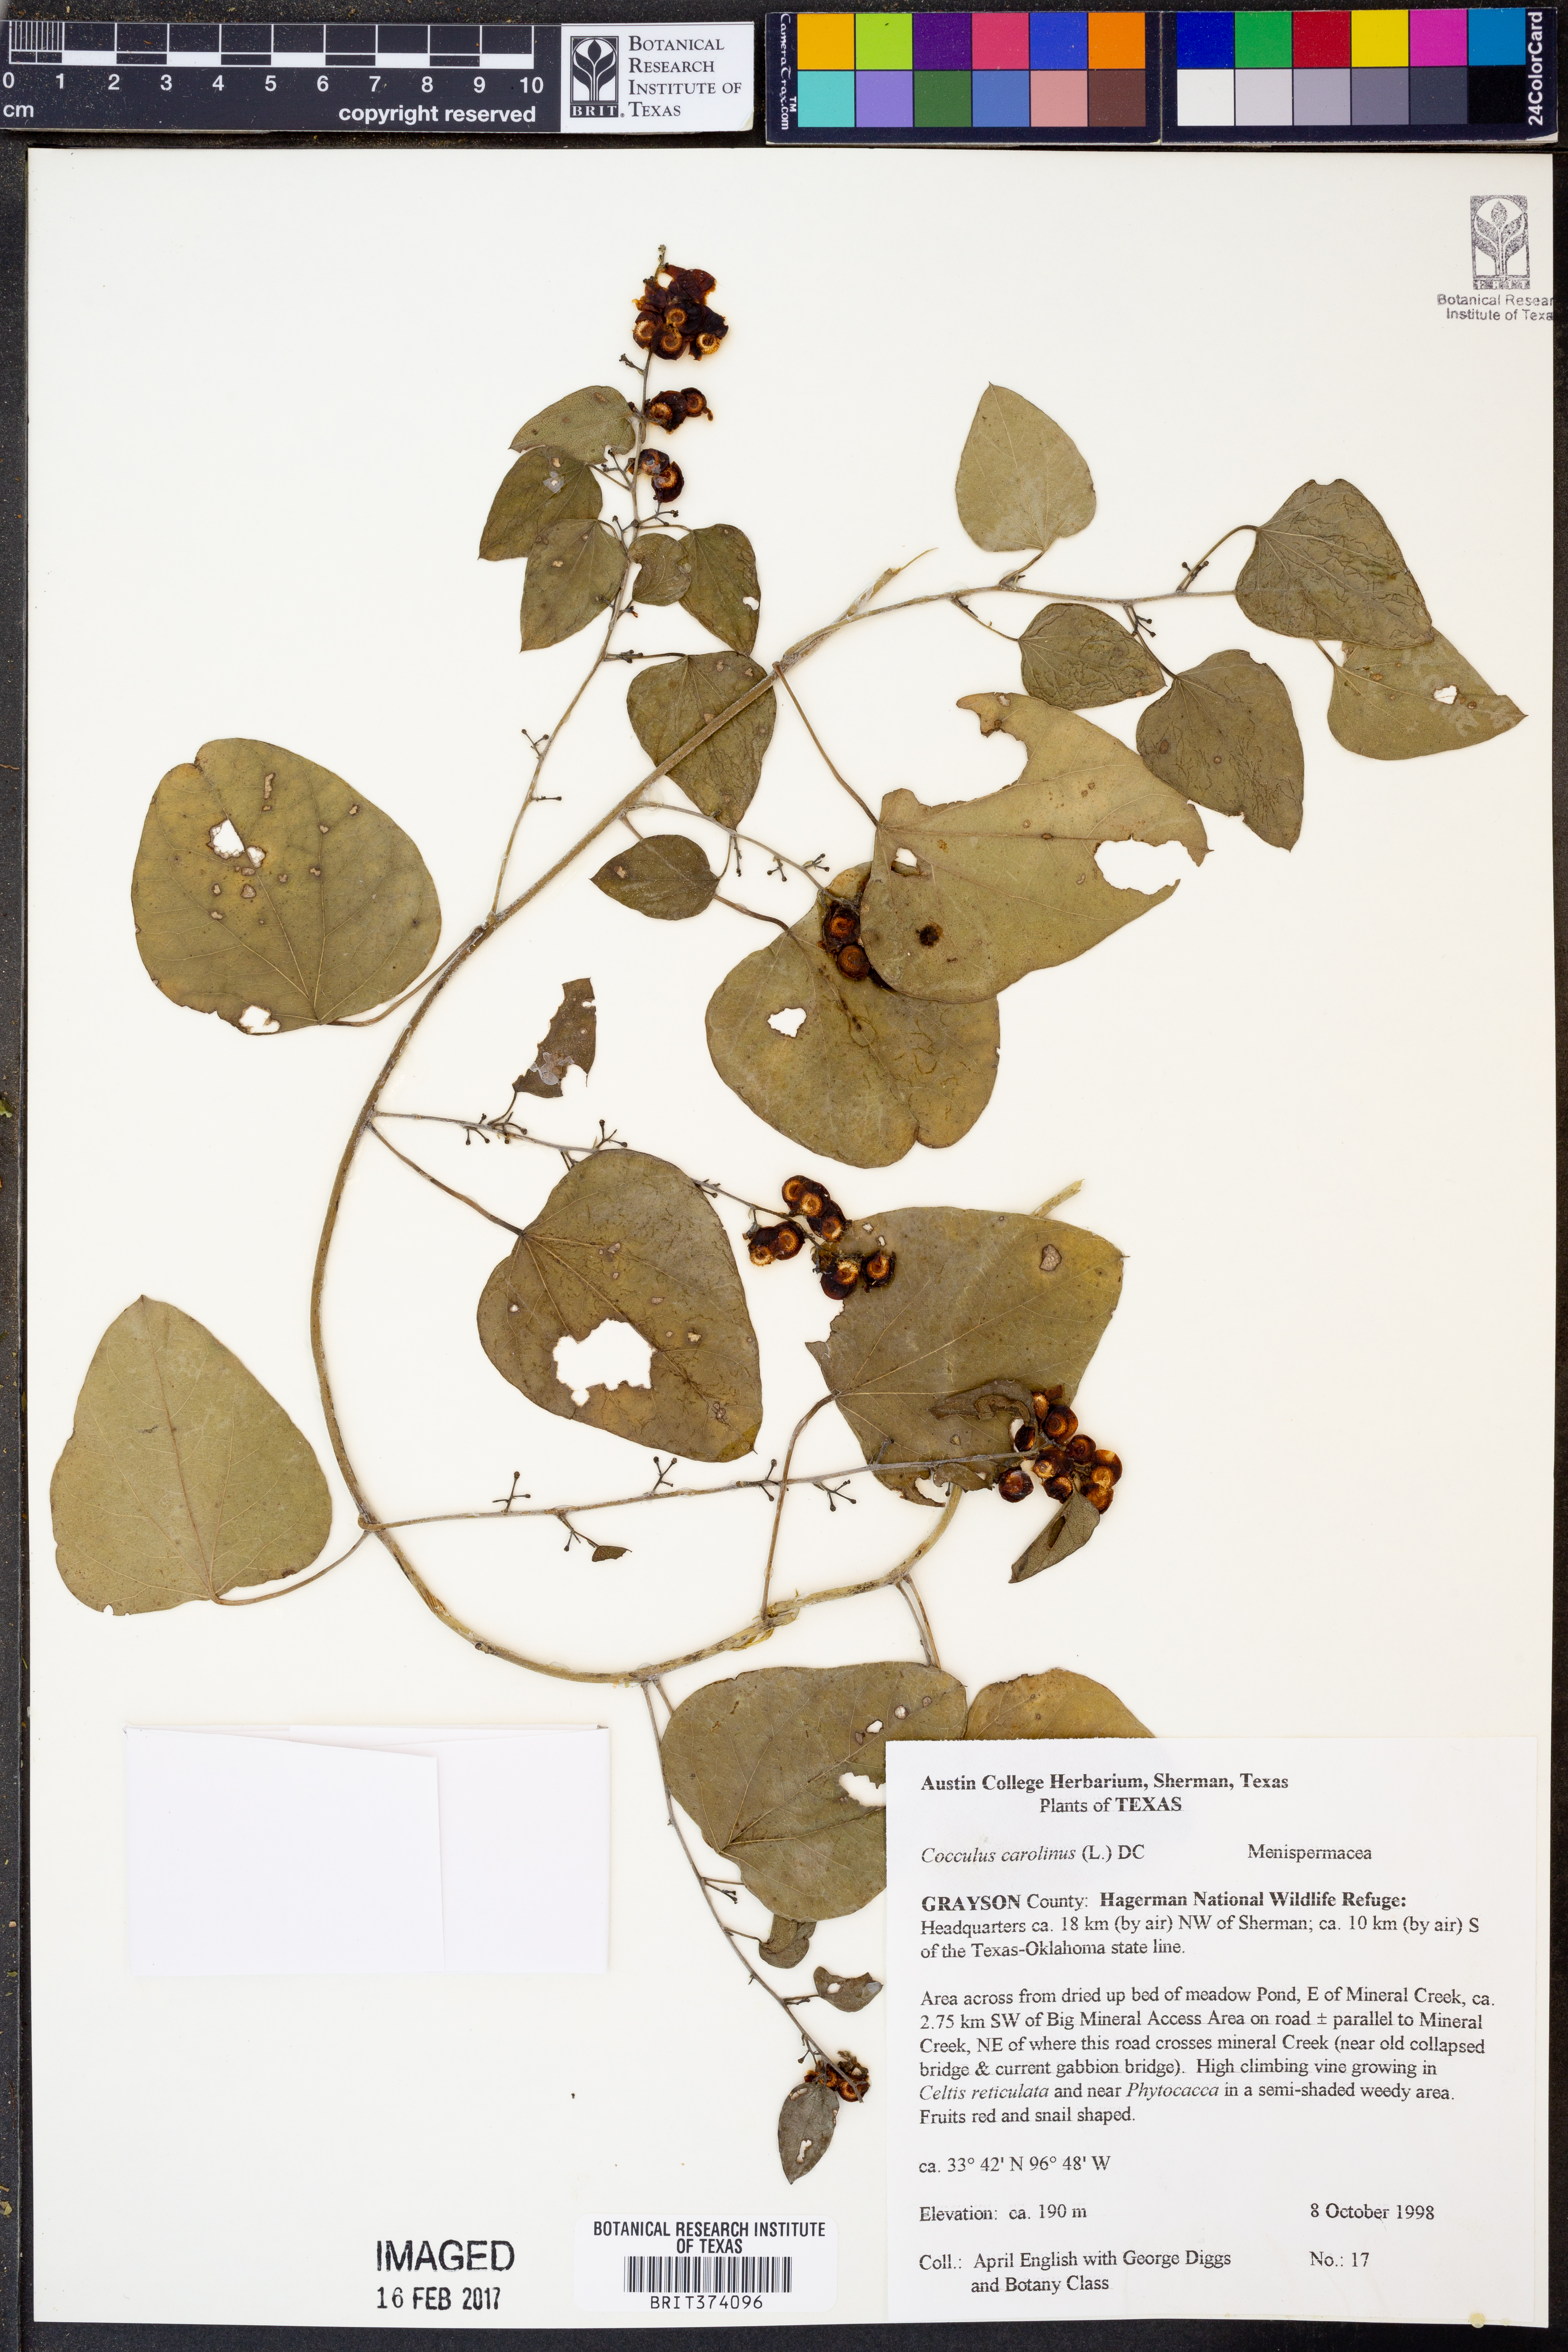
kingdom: Plantae
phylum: Tracheophyta
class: Magnoliopsida
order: Rosales
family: Ulmaceae
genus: Ulmus
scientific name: Ulmus crassifolia
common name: Basket elm
